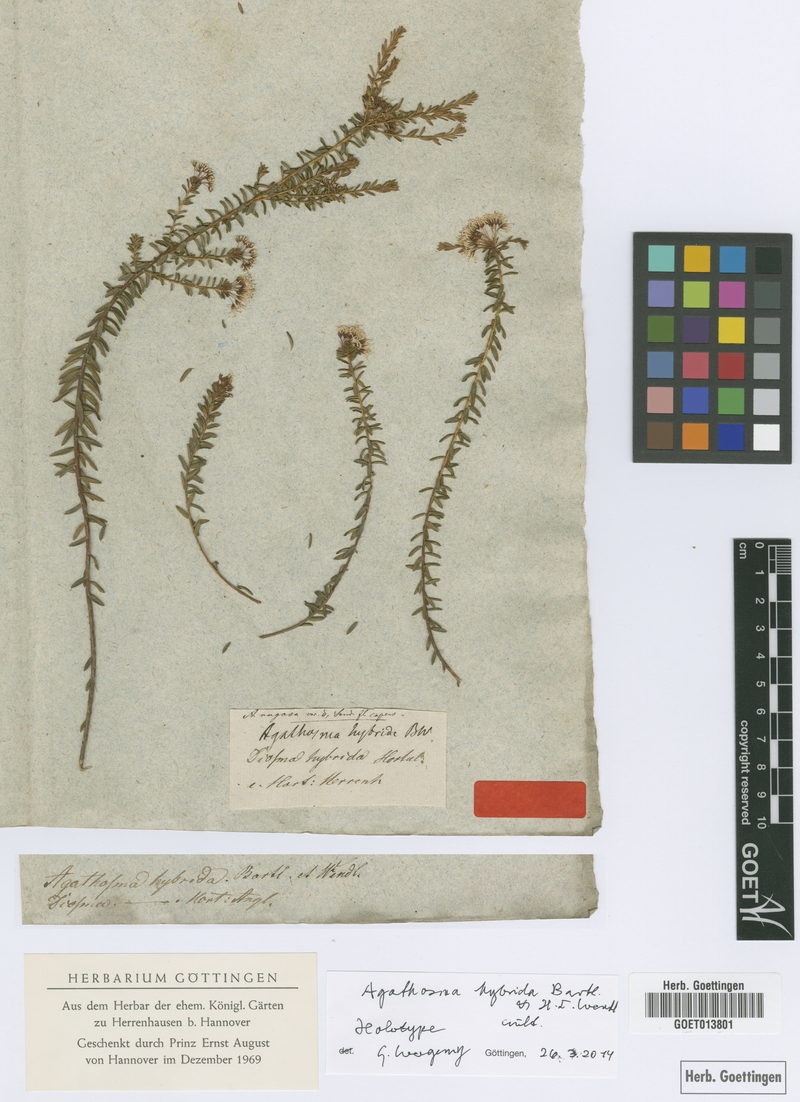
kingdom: Plantae
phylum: Tracheophyta
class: Magnoliopsida
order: Sapindales
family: Rutaceae
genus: Agathosma
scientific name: Agathosma ciliaris
